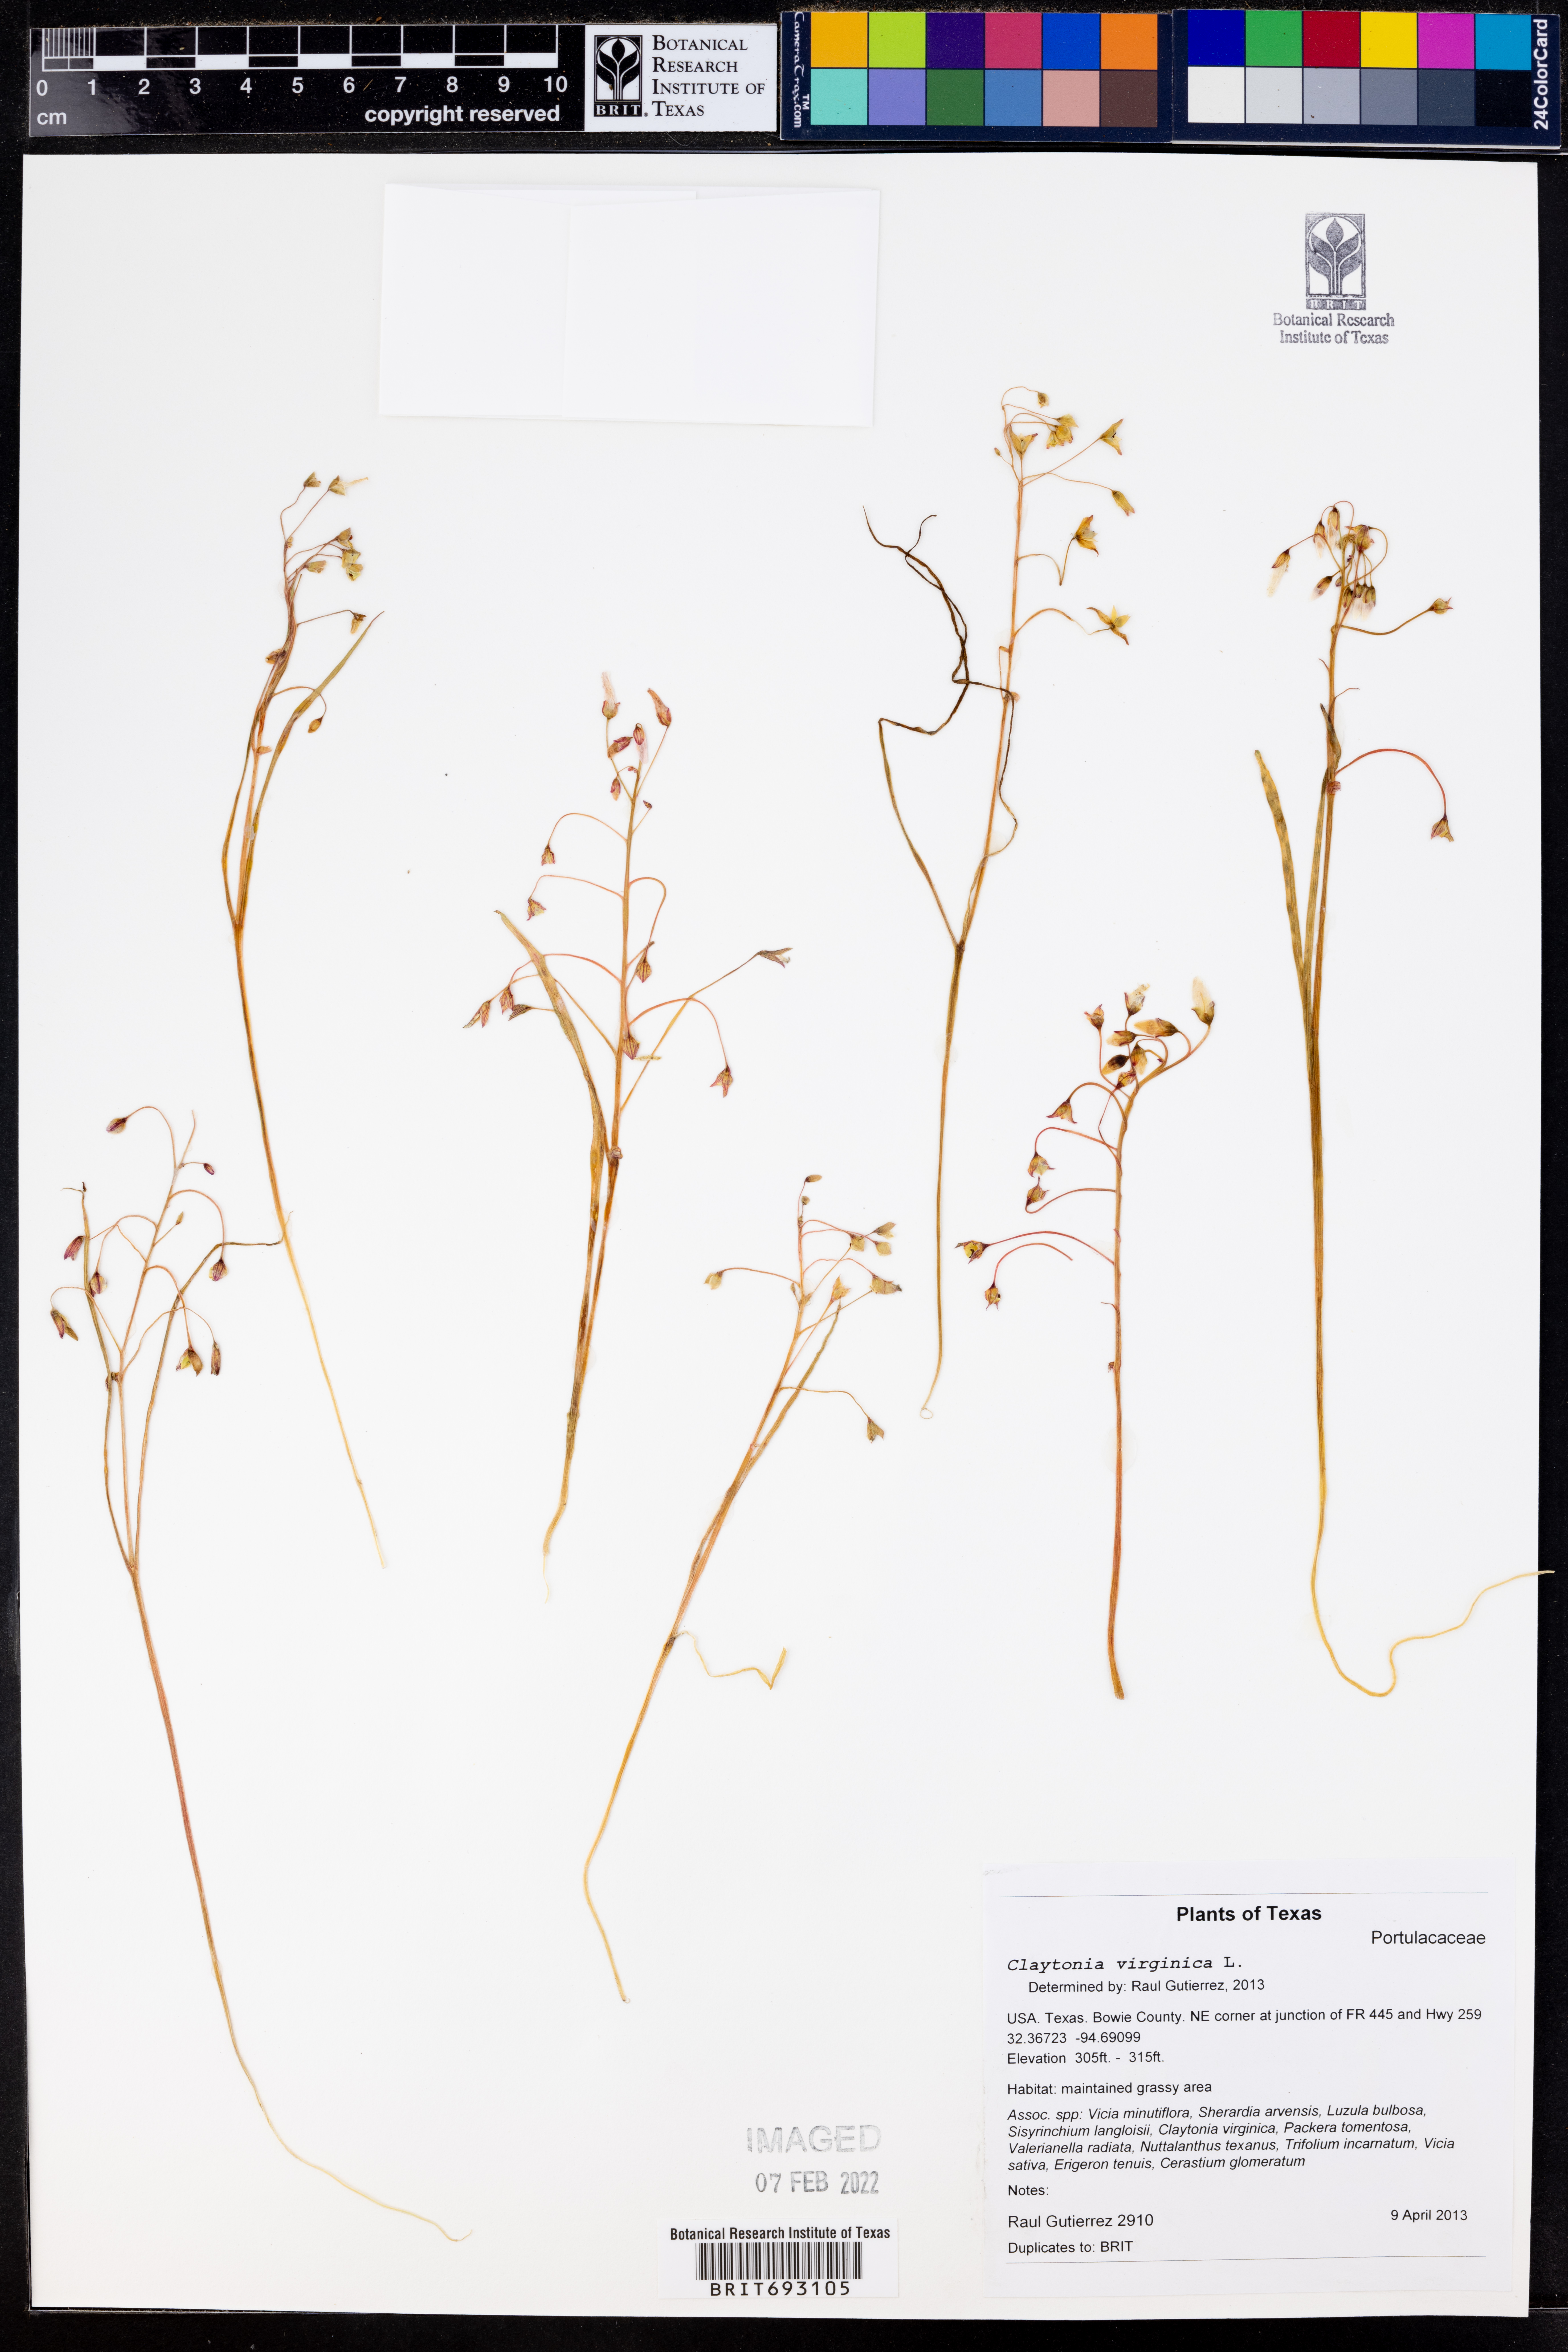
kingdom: Plantae
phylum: Tracheophyta
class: Magnoliopsida
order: Caryophyllales
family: Montiaceae
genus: Claytonia
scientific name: Claytonia virginica
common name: Virginia springbeauty
